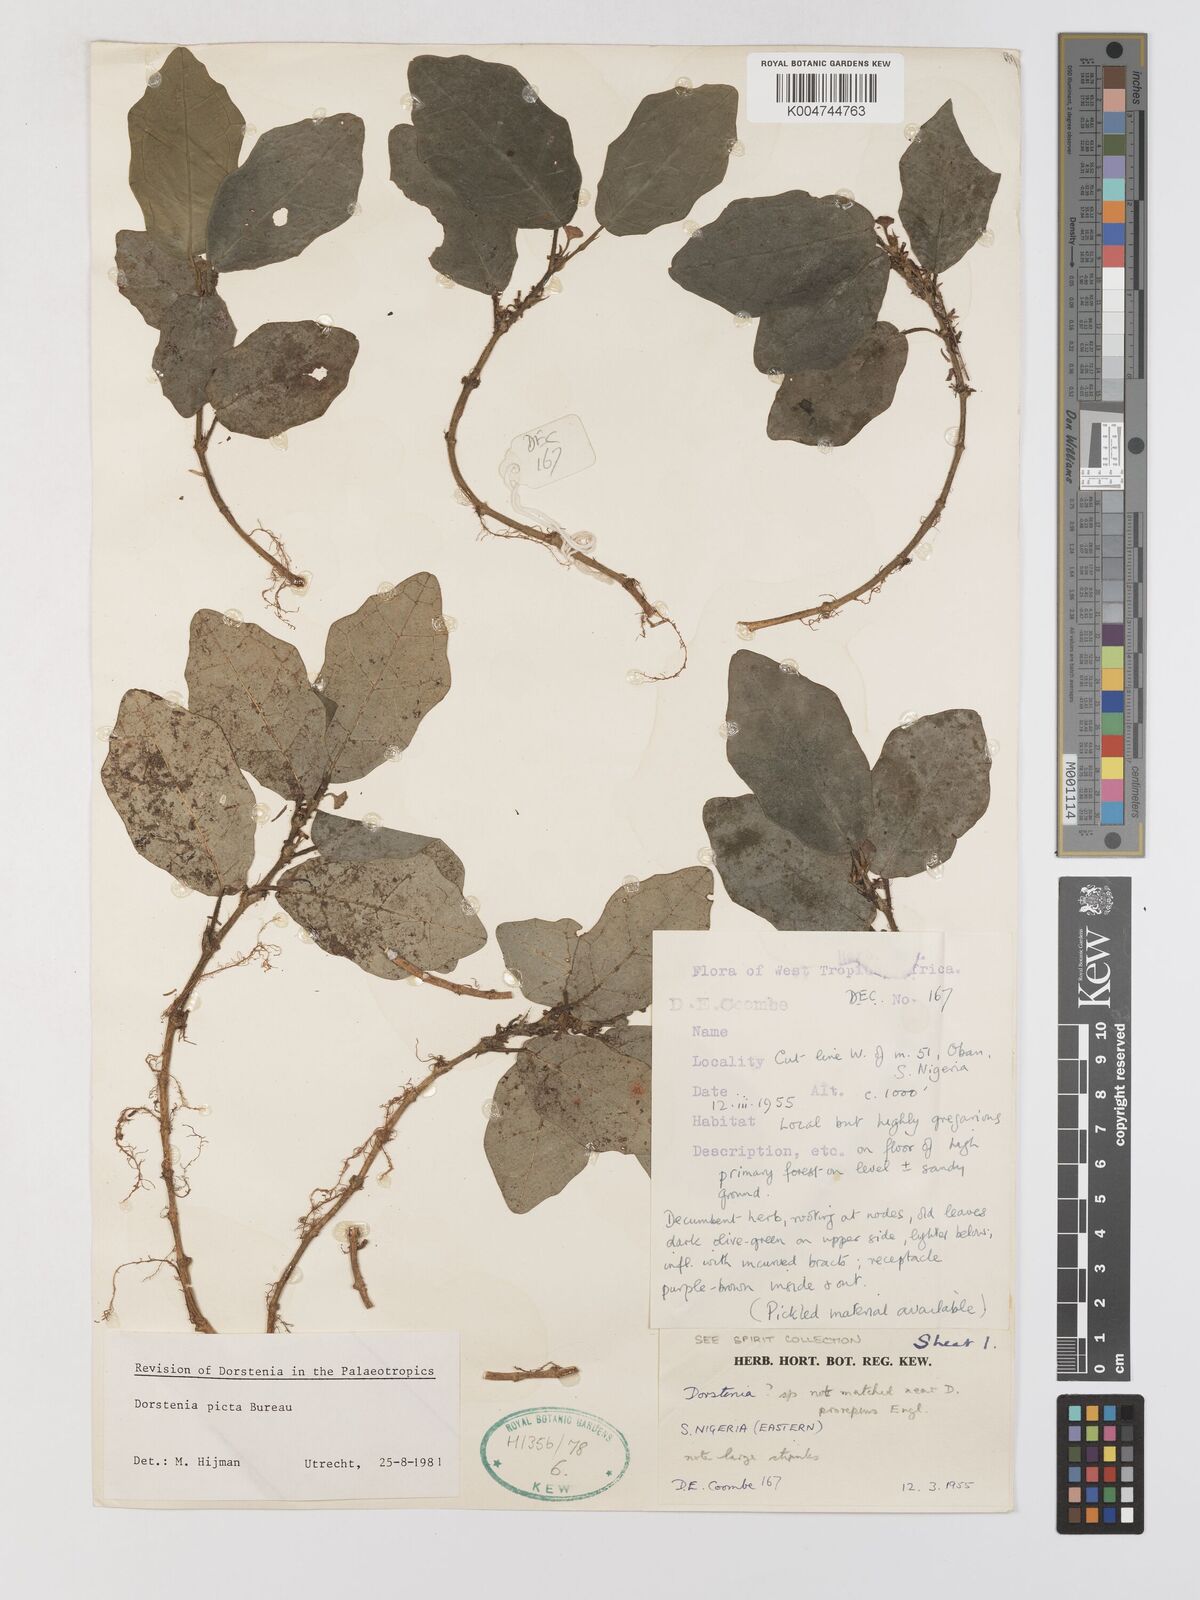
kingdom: Plantae
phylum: Tracheophyta
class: Magnoliopsida
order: Rosales
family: Moraceae
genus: Dorstenia
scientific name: Dorstenia picta
